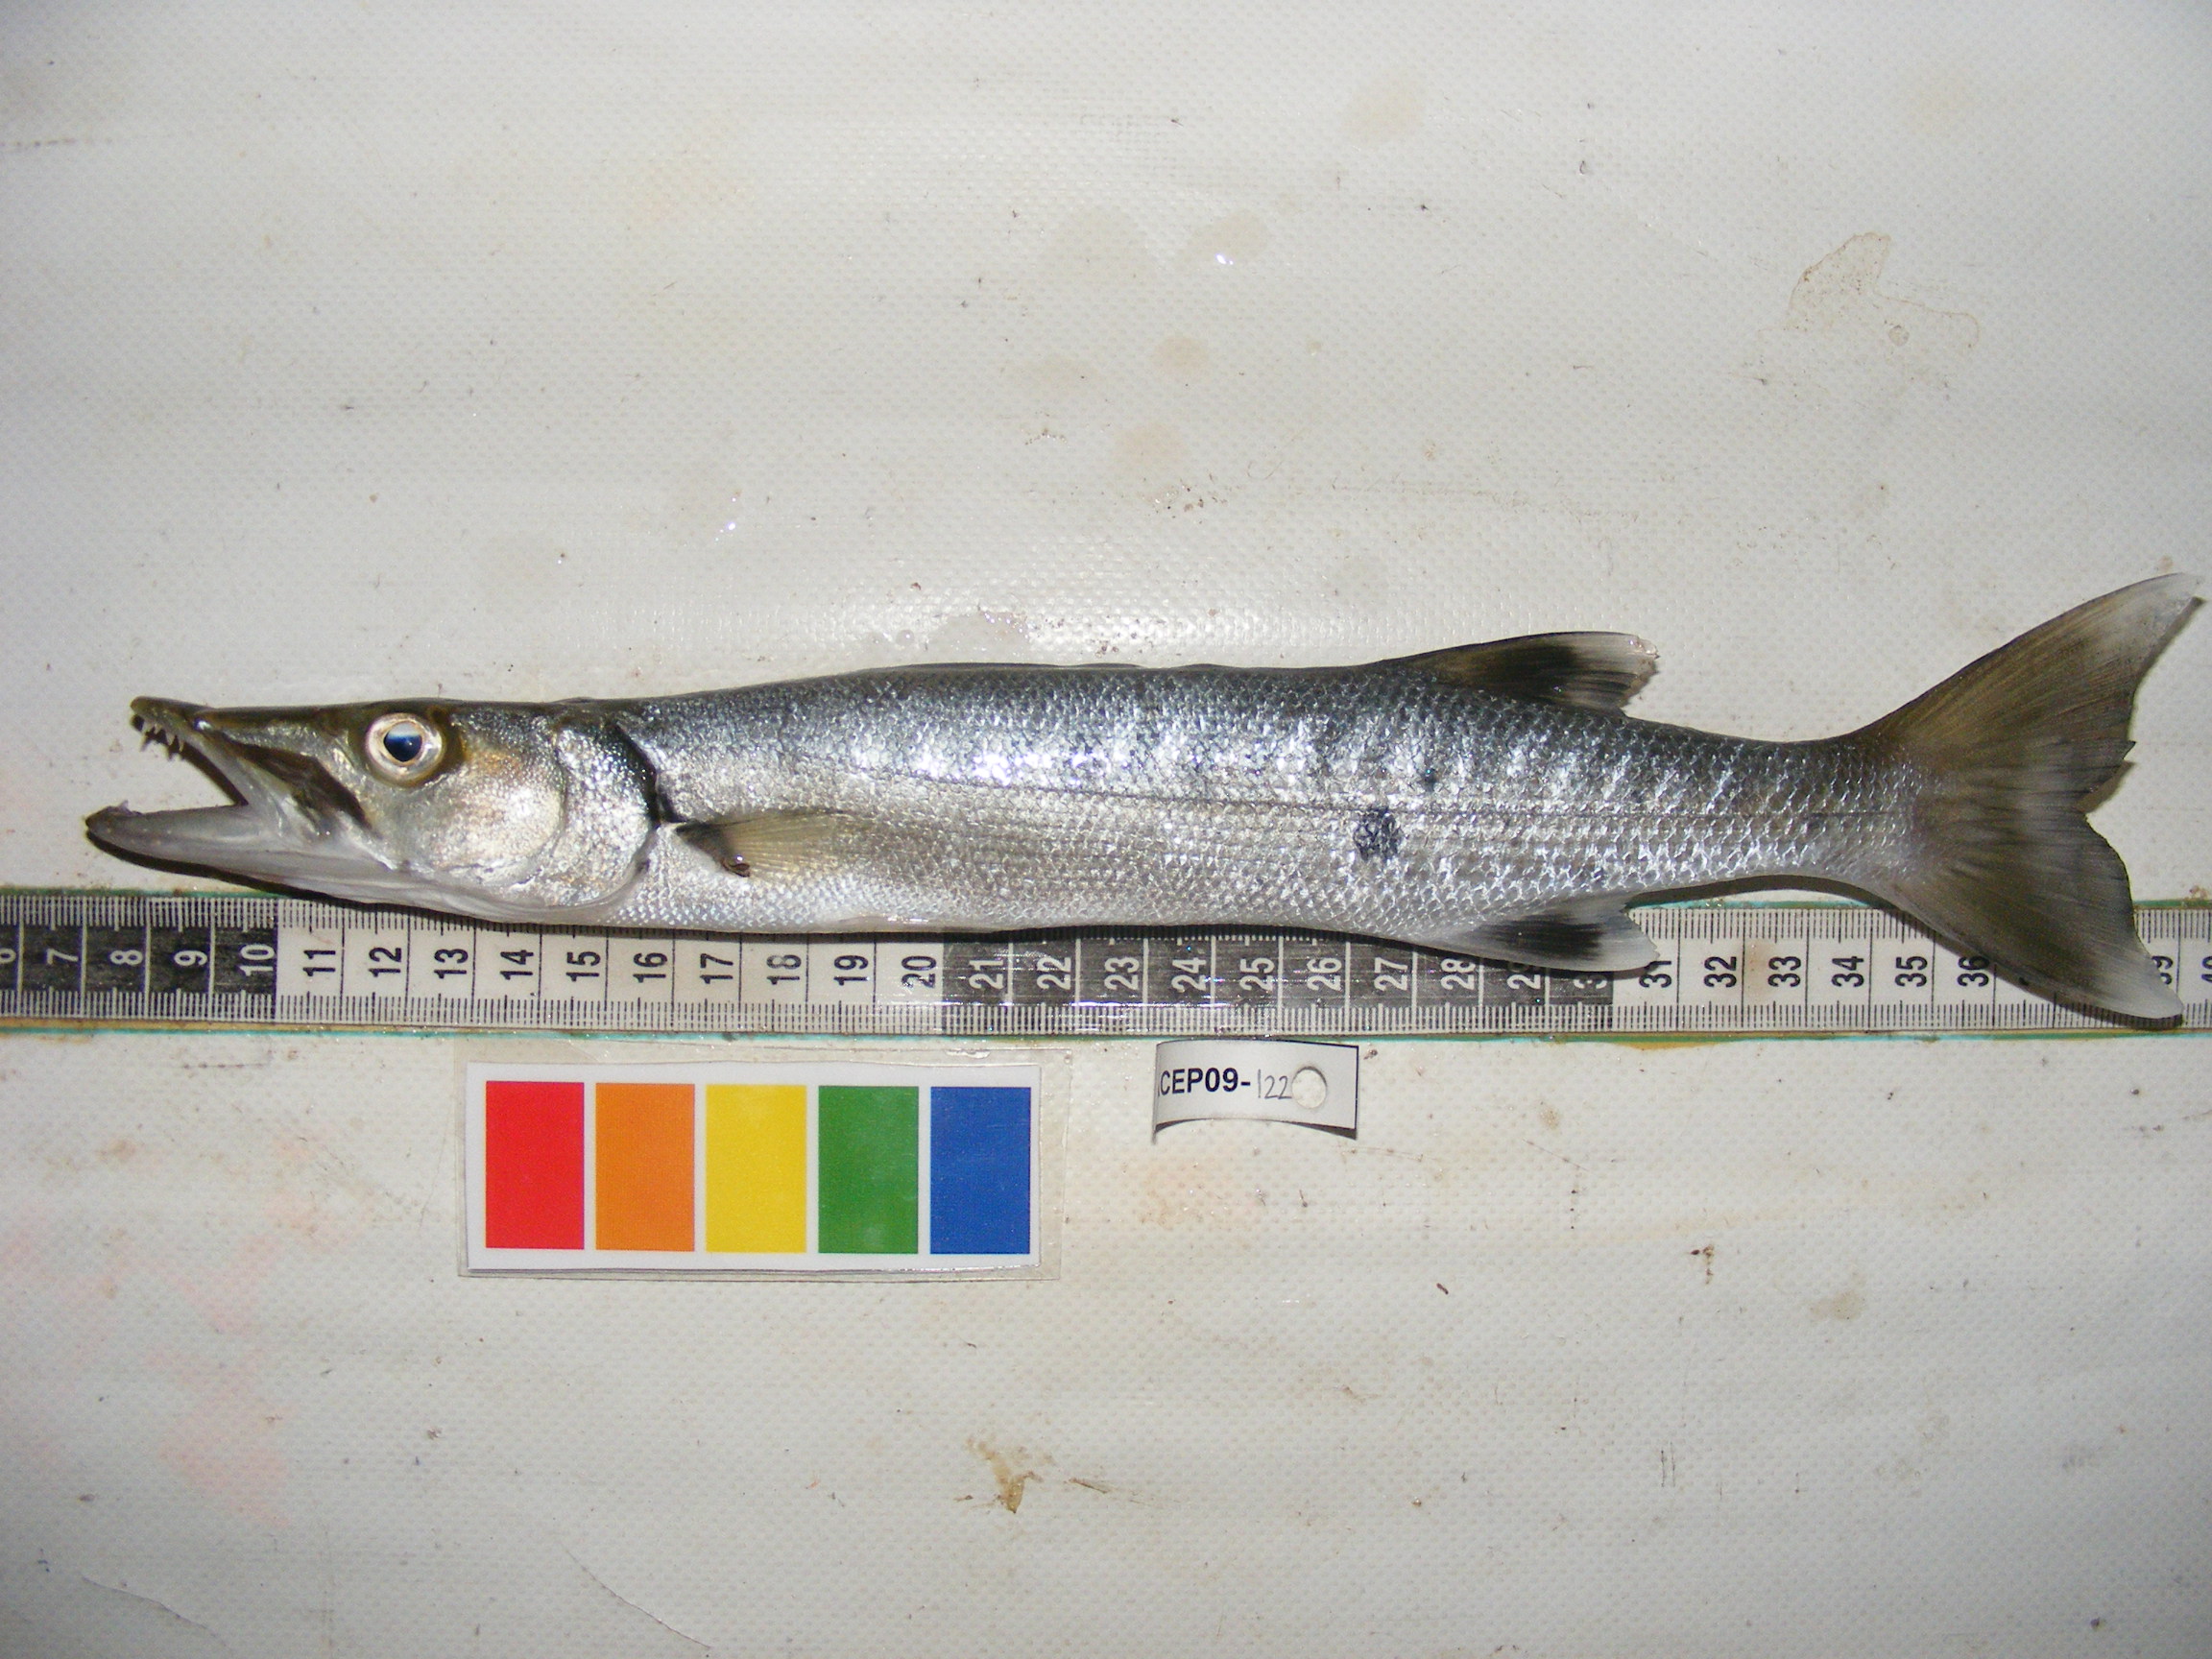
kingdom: Animalia
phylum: Chordata
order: Perciformes
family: Sphyraenidae
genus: Sphyraena
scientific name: Sphyraena barracuda
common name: Great barracuda
